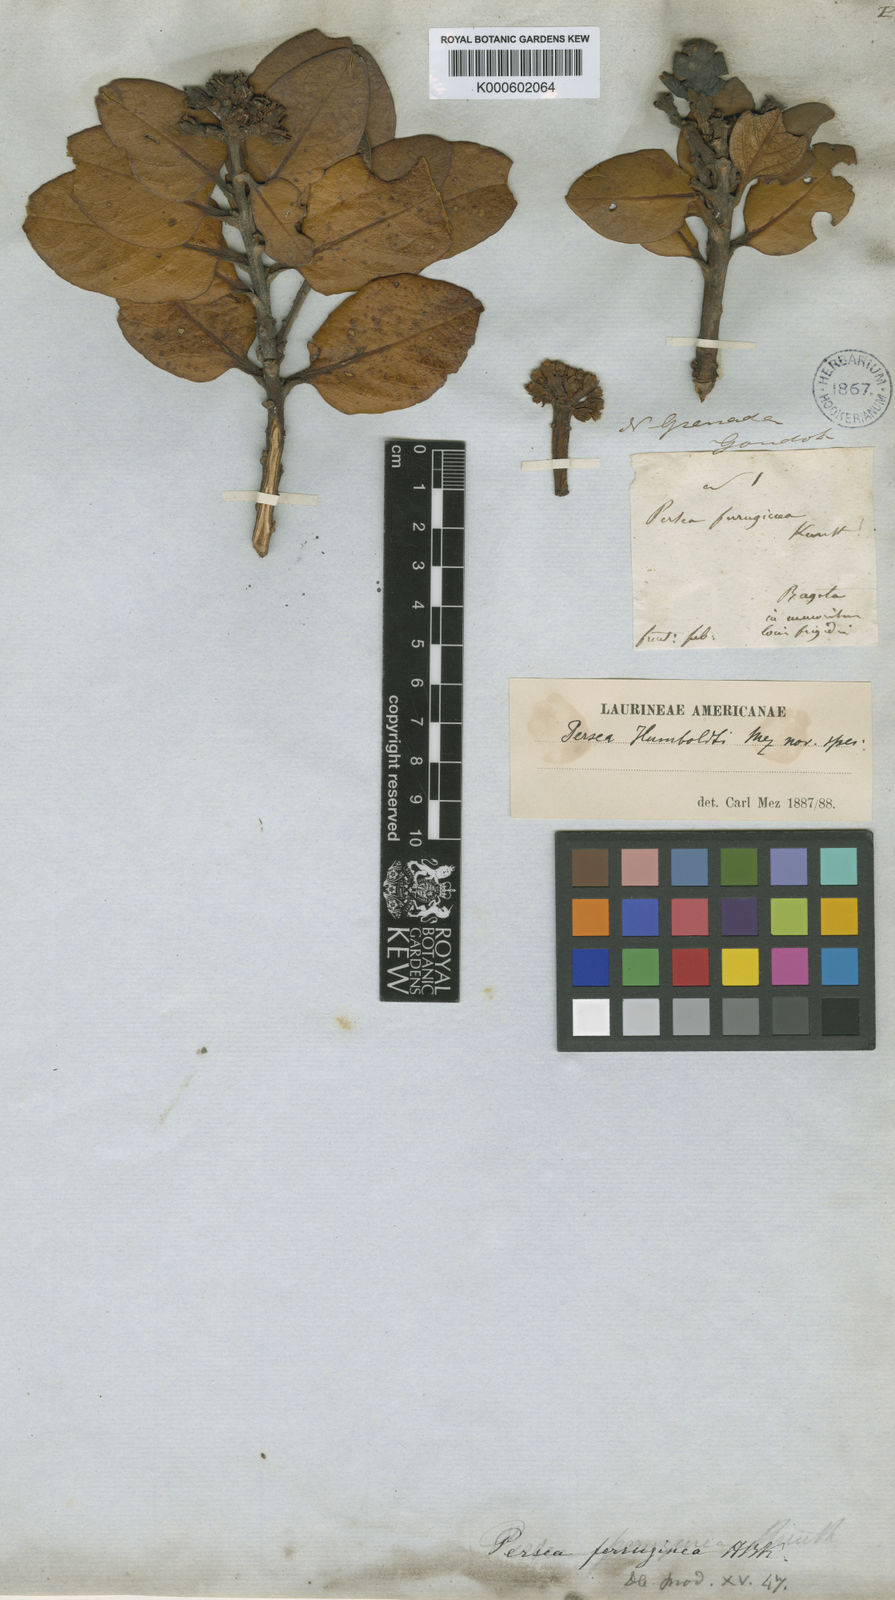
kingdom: Plantae
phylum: Tracheophyta
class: Magnoliopsida
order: Laurales
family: Lauraceae
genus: Persea
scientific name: Persea ferruginea
